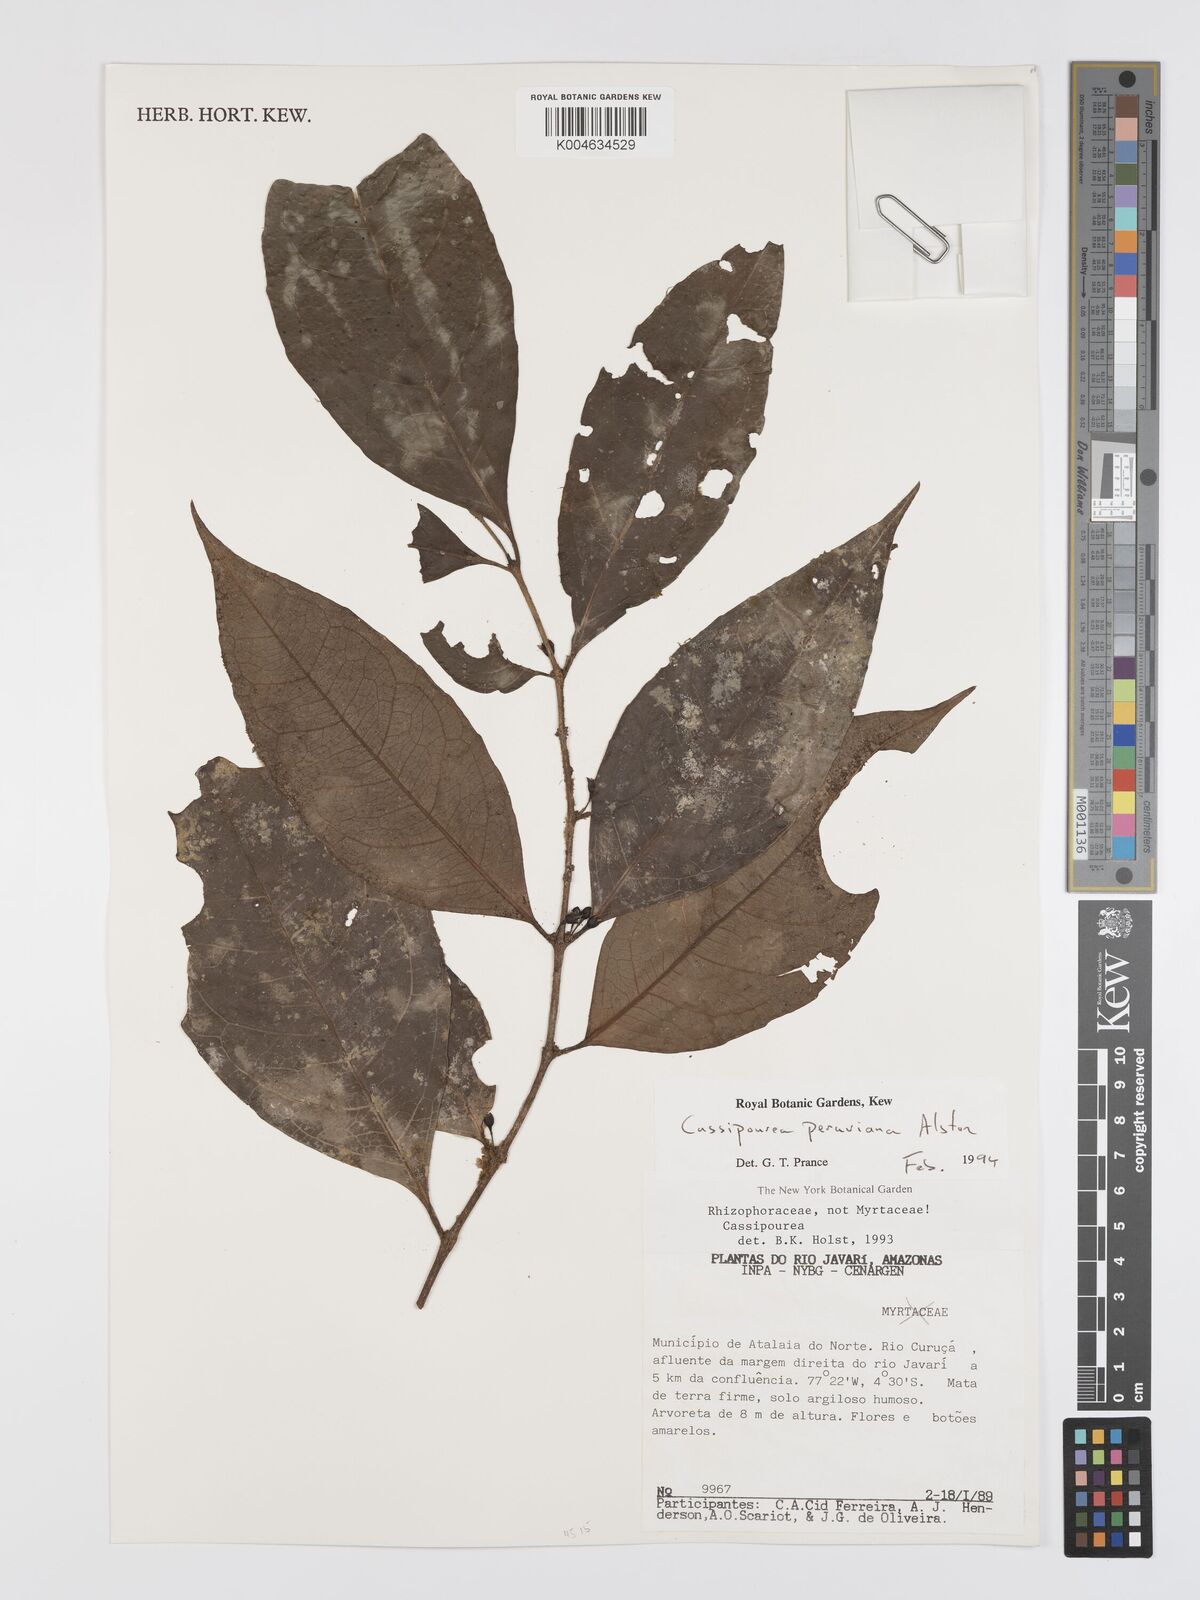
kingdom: Plantae
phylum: Tracheophyta
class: Magnoliopsida
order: Malpighiales
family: Rhizophoraceae
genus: Cassipourea
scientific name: Cassipourea peruviana
